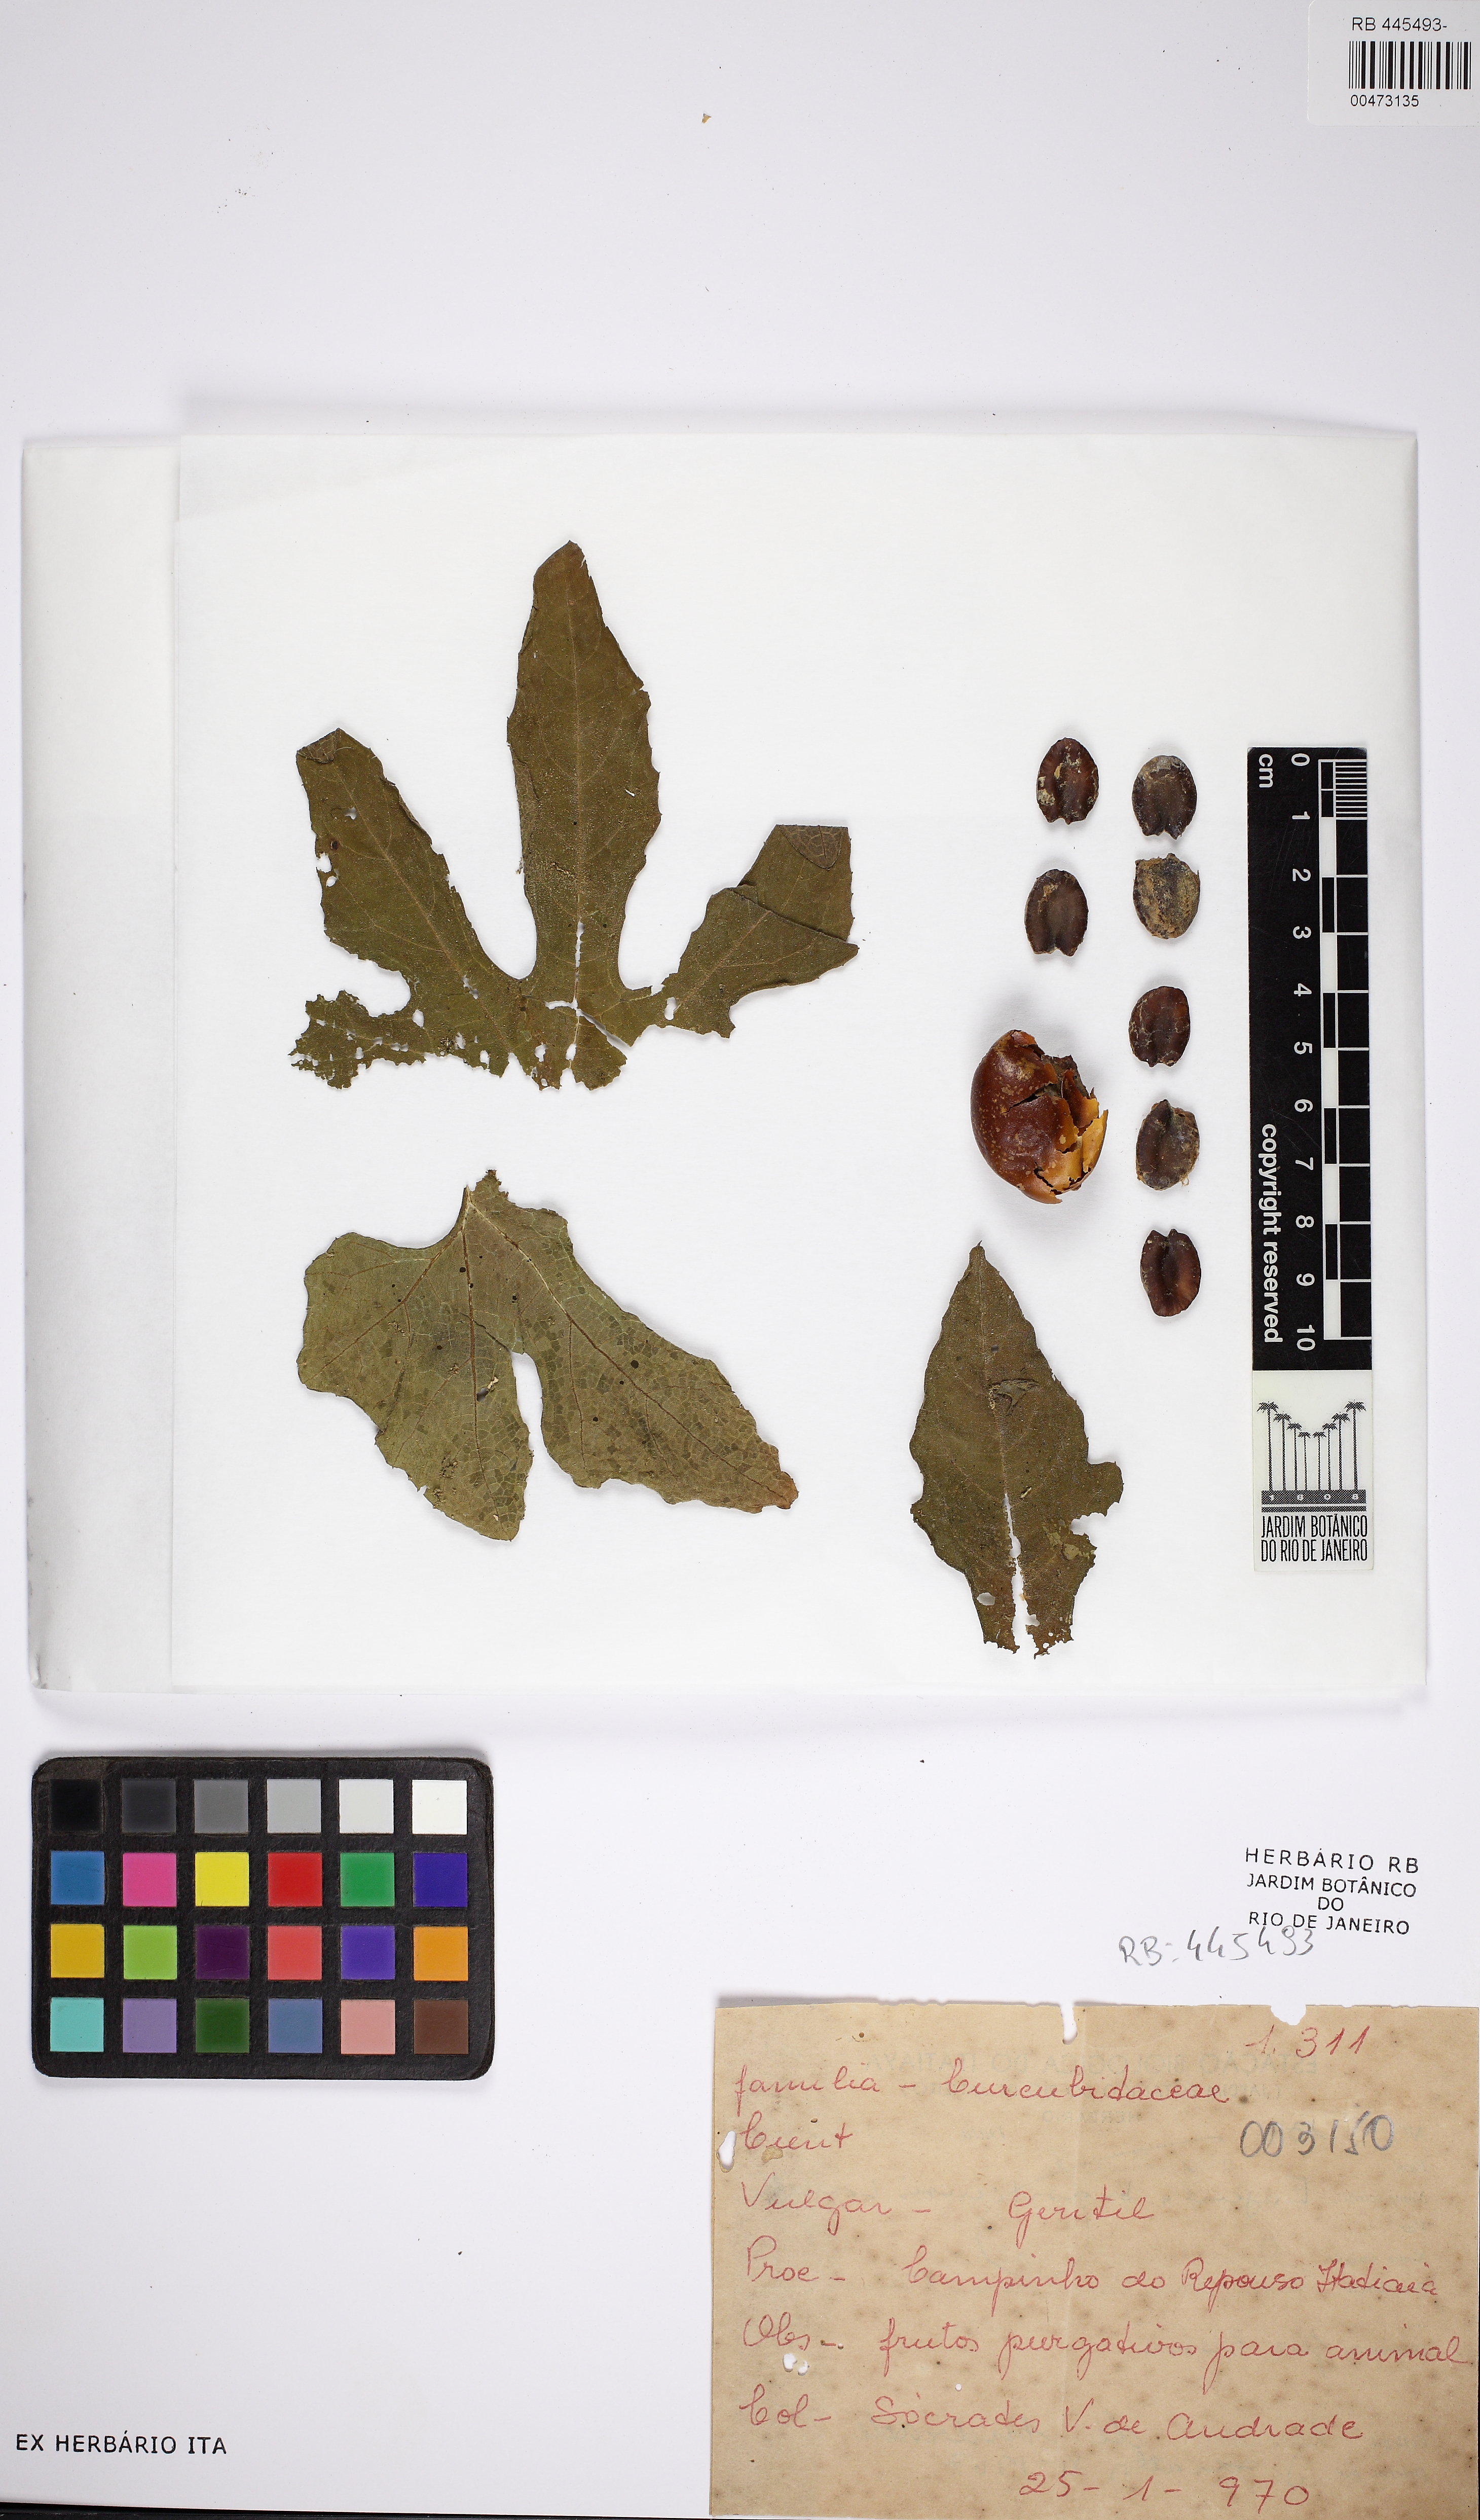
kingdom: Plantae
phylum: Tracheophyta
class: Magnoliopsida
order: Cucurbitales
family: Cucurbitaceae
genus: Cayaponia
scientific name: Cayaponia trilobata
